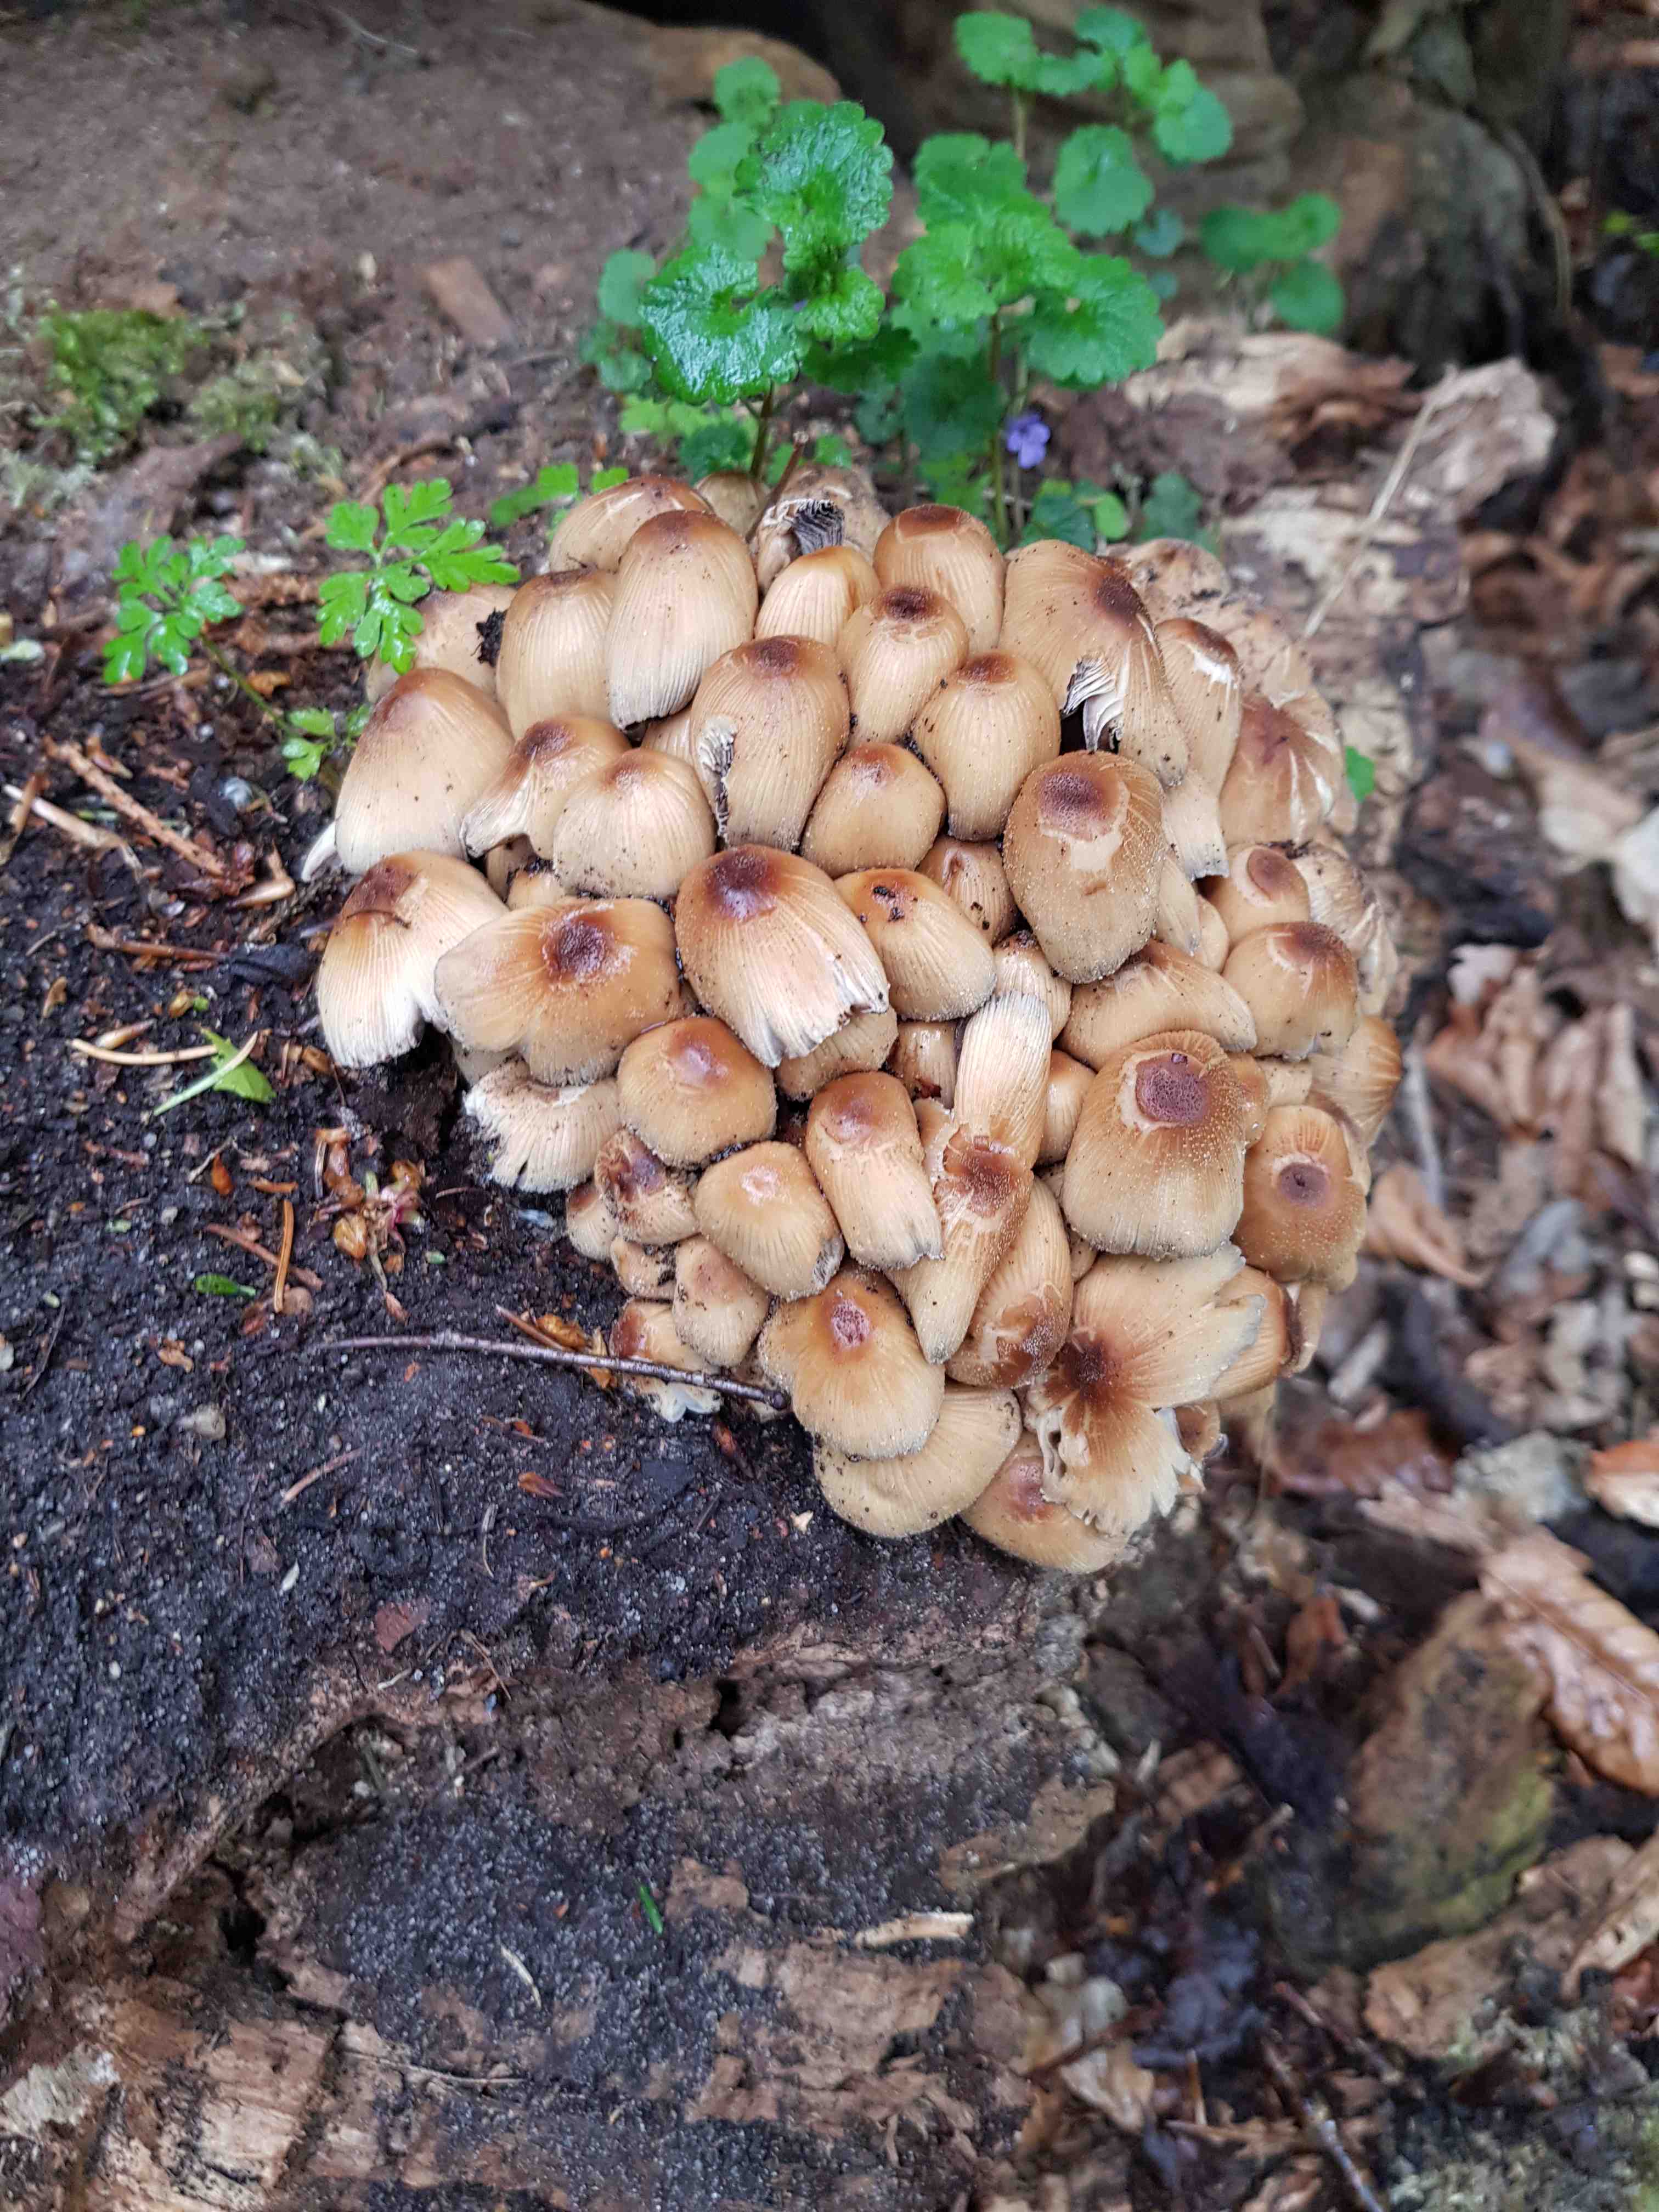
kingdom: Fungi
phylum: Basidiomycota
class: Agaricomycetes
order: Agaricales
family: Psathyrellaceae
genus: Coprinellus
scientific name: Coprinellus micaceus
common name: glimmer-blækhat
